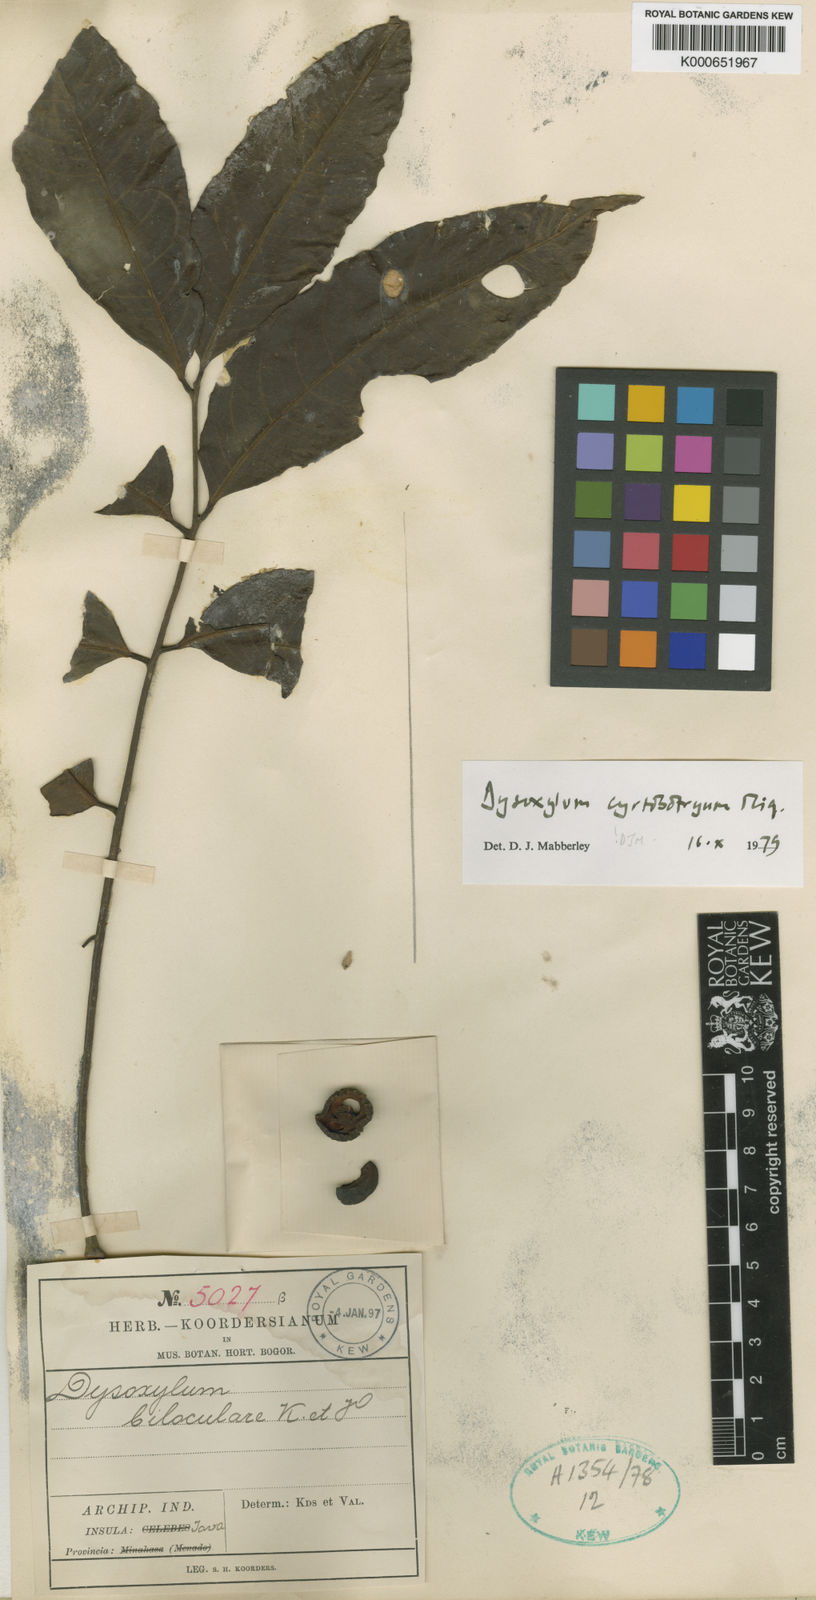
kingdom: Plantae
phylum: Tracheophyta
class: Magnoliopsida
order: Sapindales
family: Meliaceae
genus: Dysoxylum
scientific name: Dysoxylum cyrtobotryum
